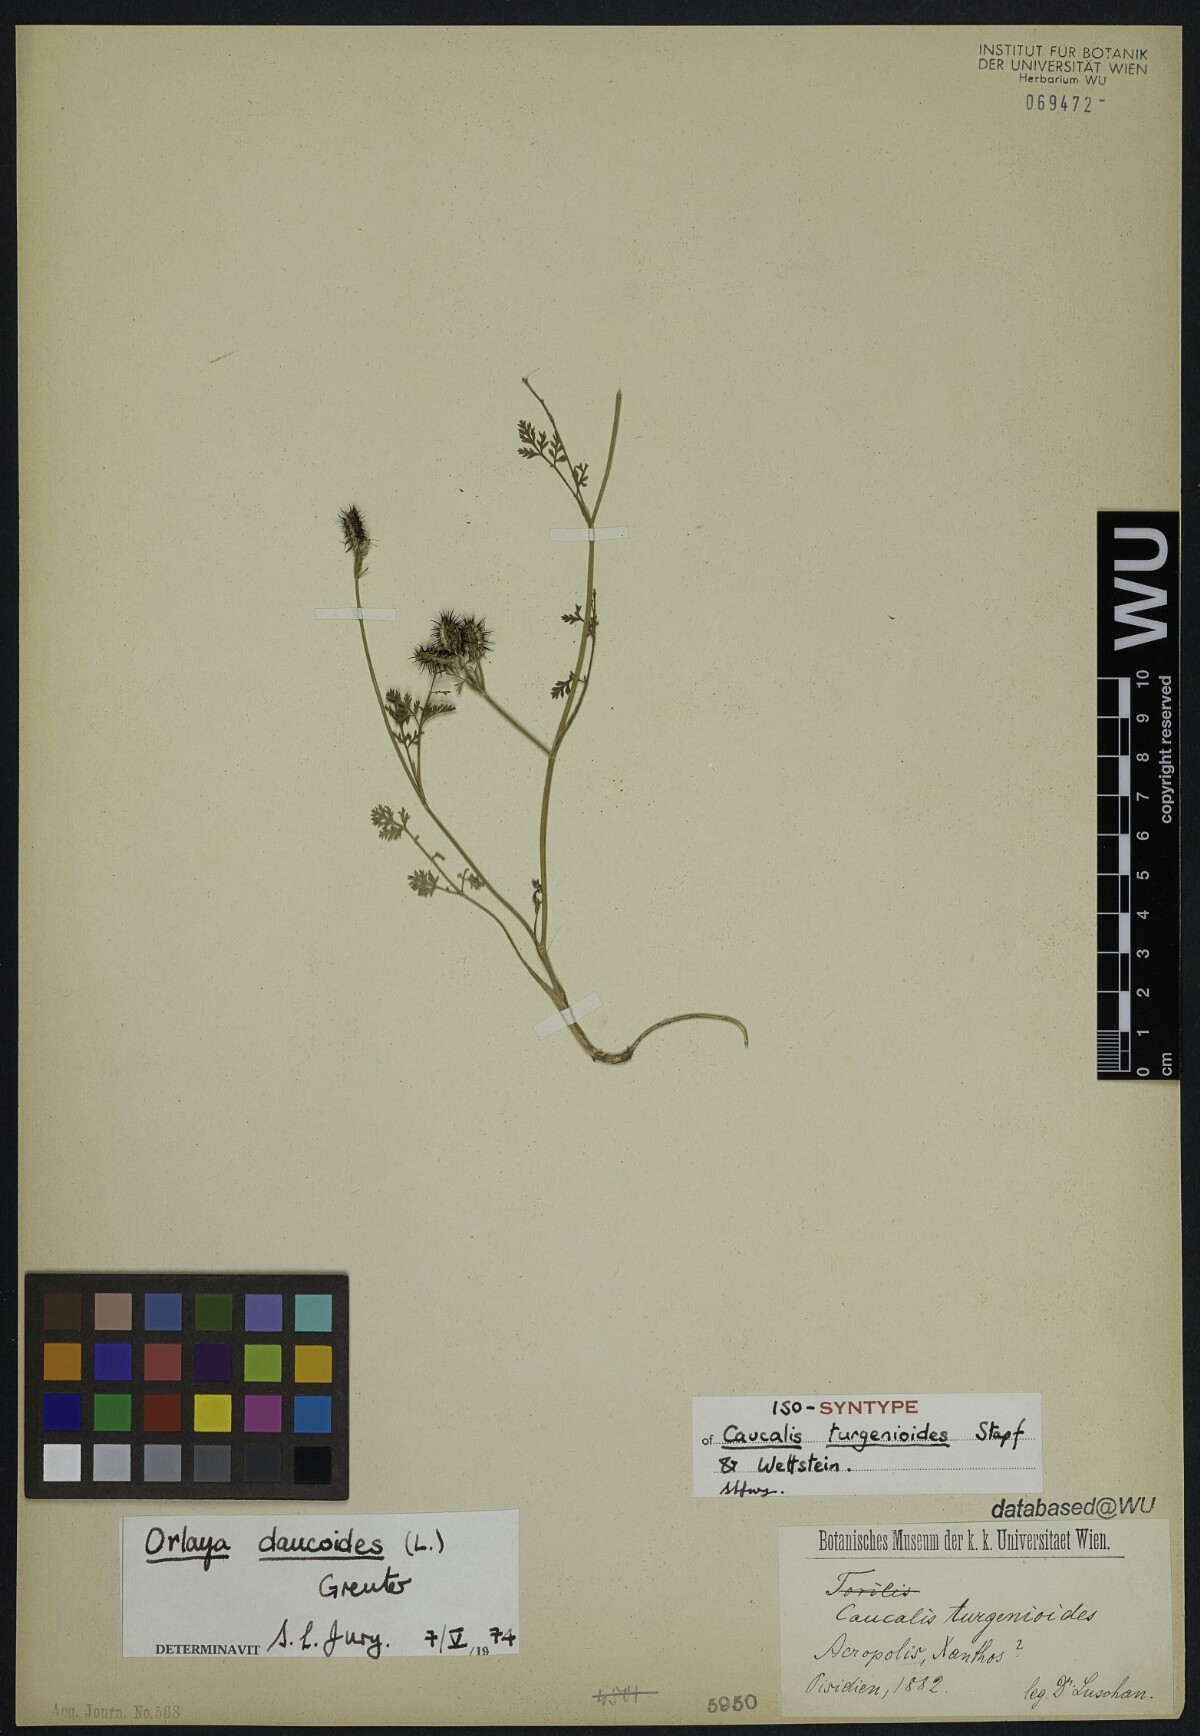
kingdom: Plantae
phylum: Tracheophyta
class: Magnoliopsida
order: Apiales
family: Apiaceae
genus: Caucalis
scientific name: Caucalis turgenioides
